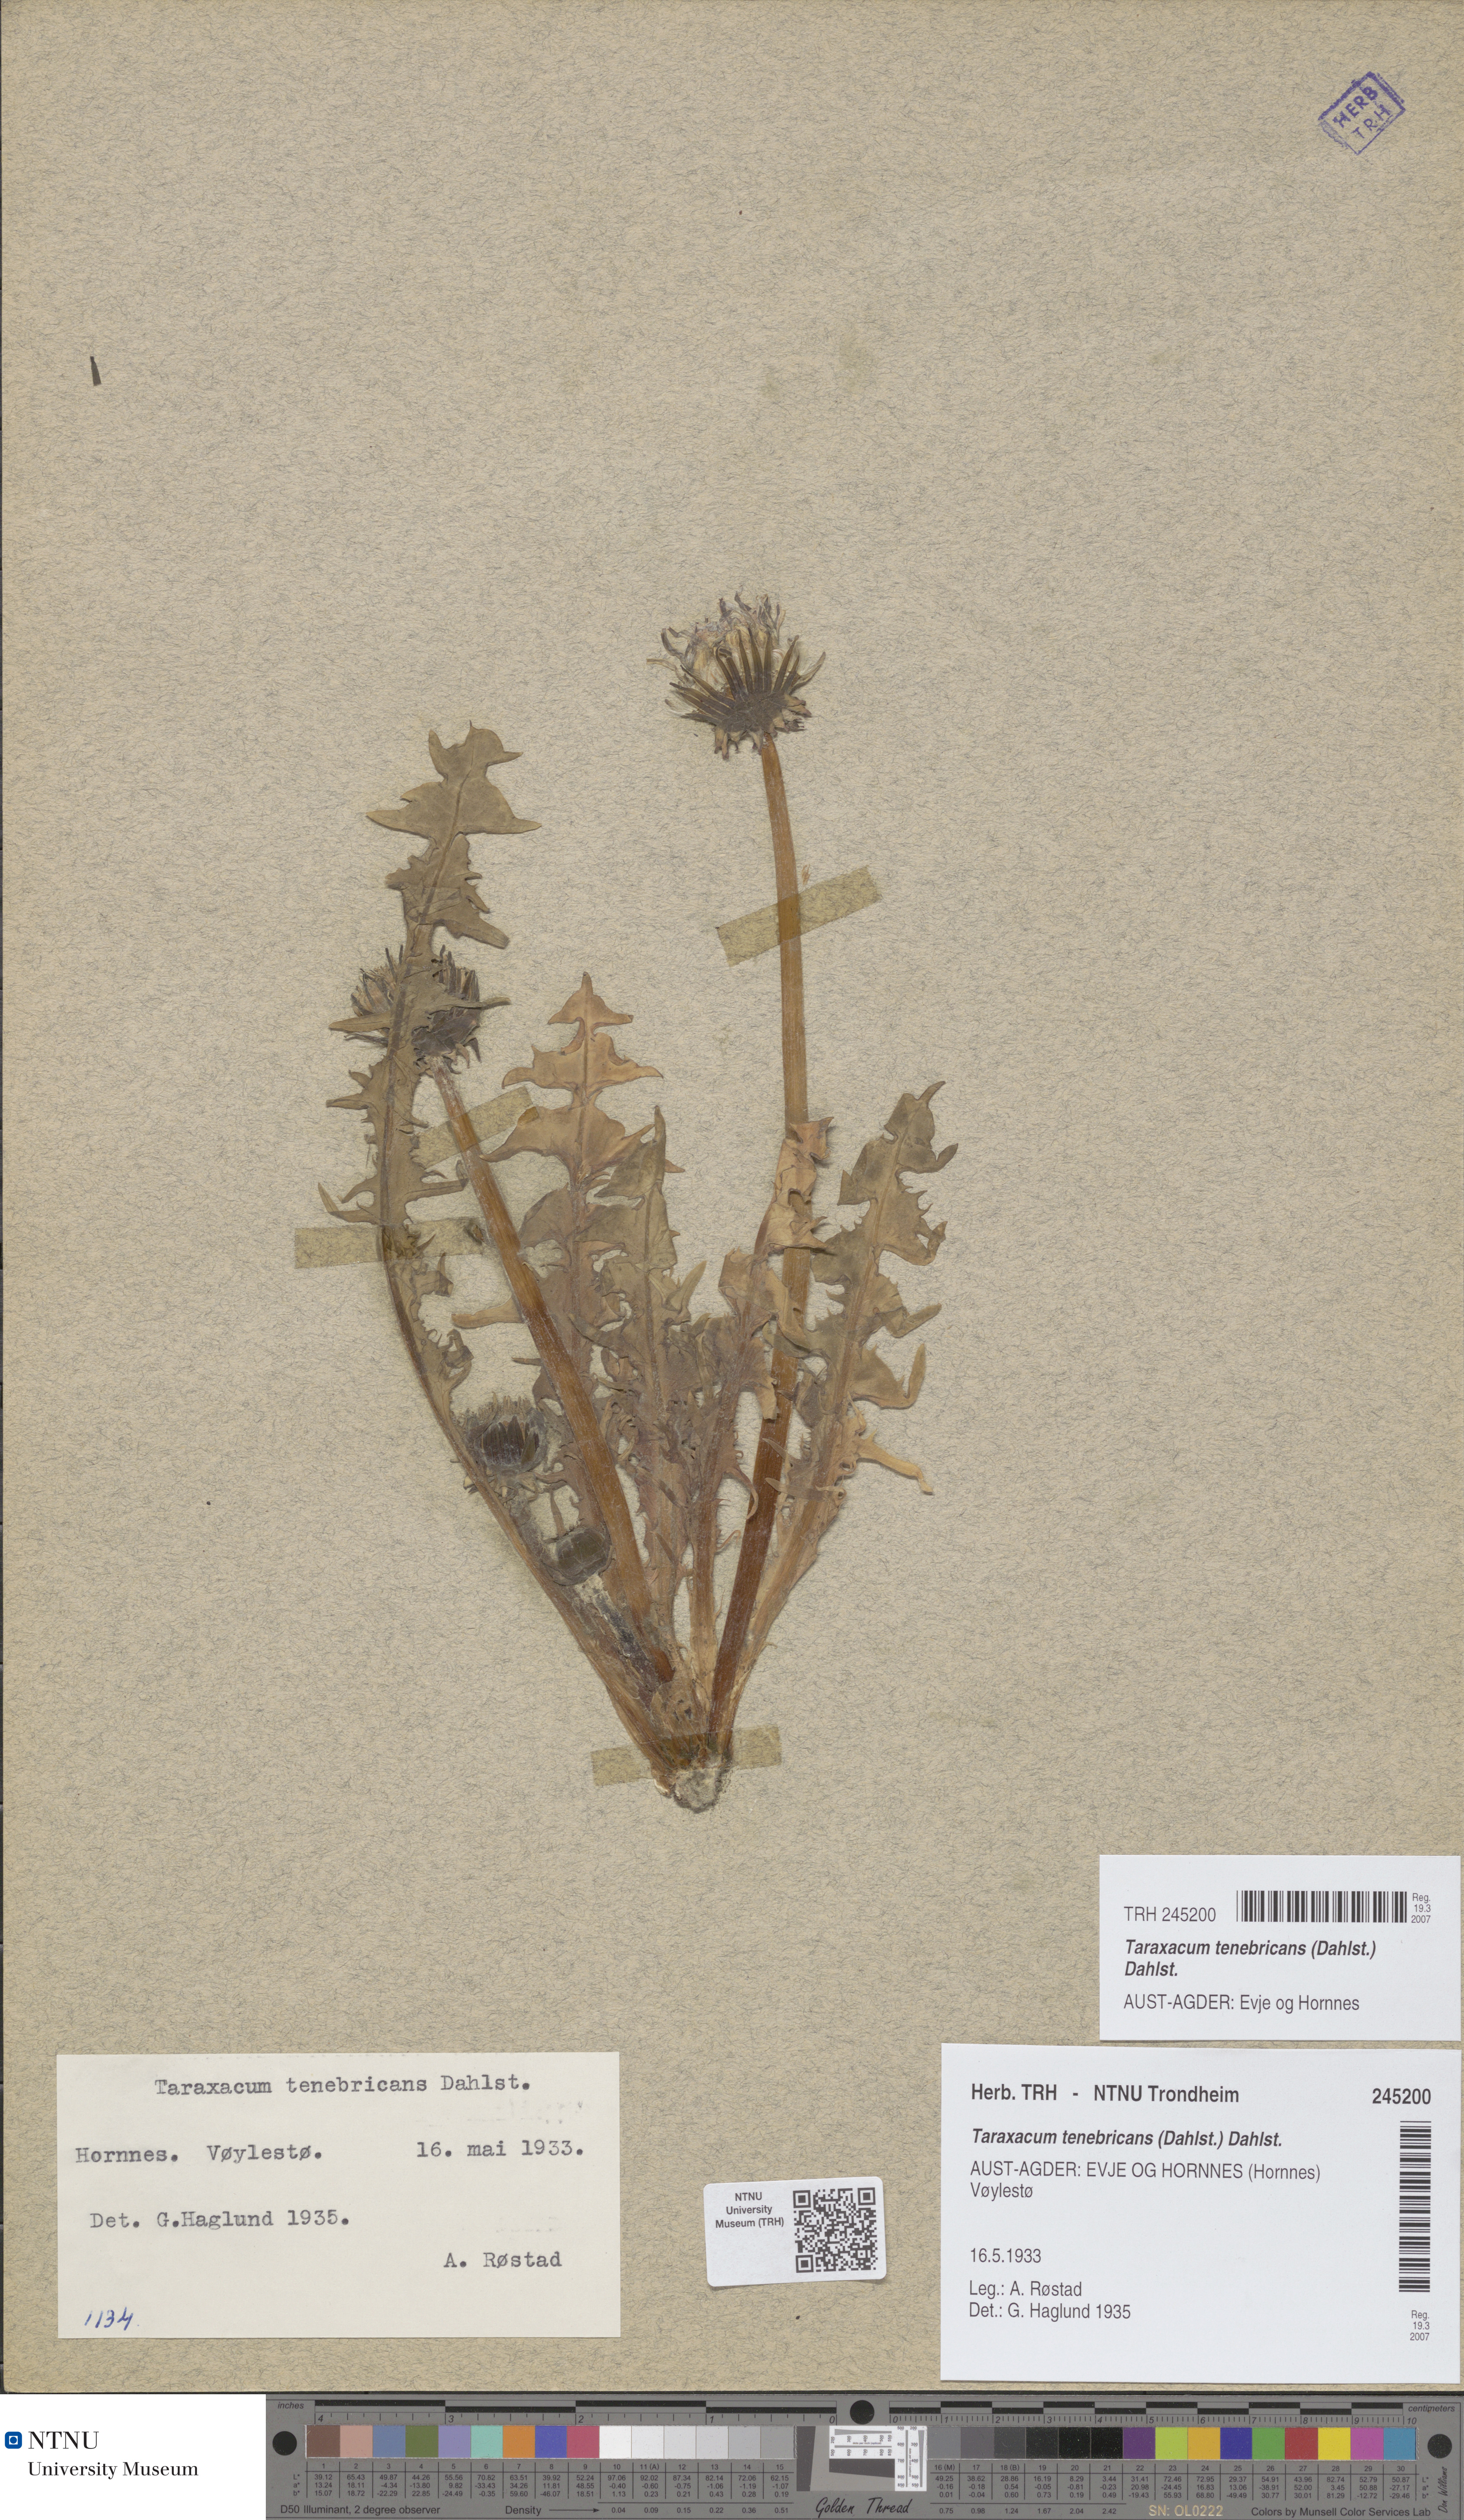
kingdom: Plantae
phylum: Tracheophyta
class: Magnoliopsida
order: Asterales
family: Asteraceae
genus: Taraxacum
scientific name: Taraxacum tenebricans
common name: Shiny-leaved dandelion
